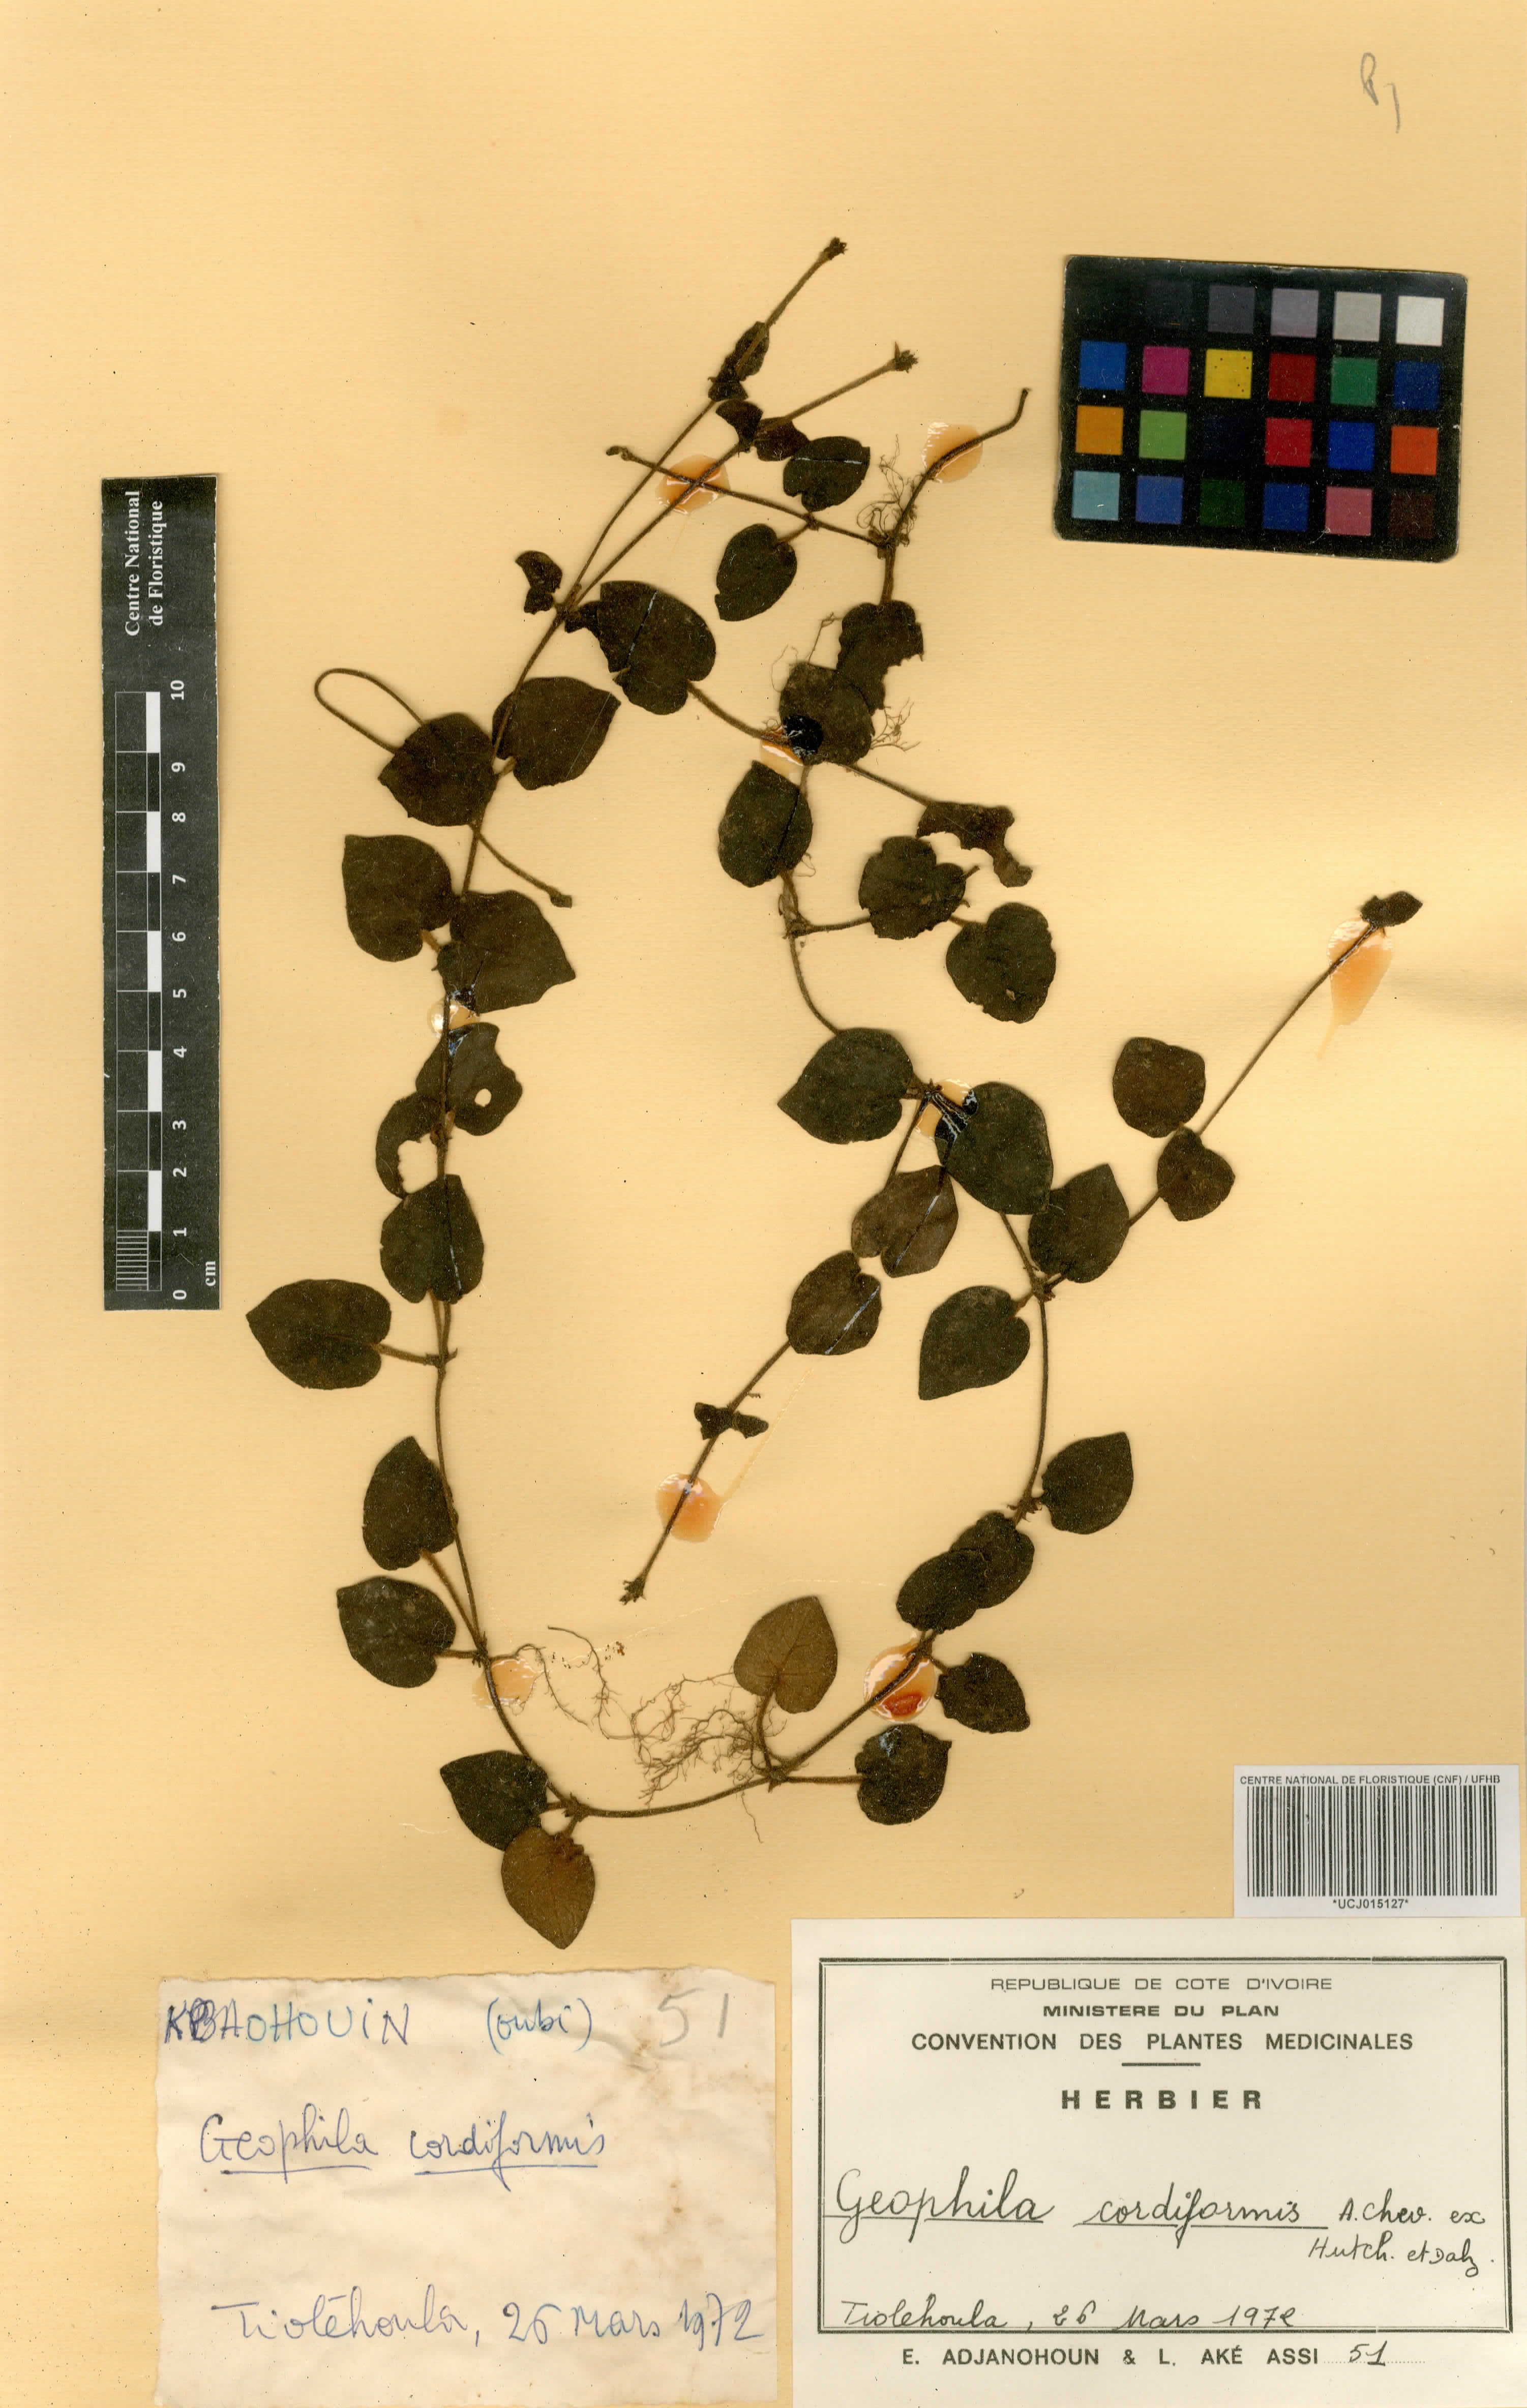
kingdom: Plantae
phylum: Tracheophyta
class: Magnoliopsida
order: Gentianales
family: Rubiaceae
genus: Geophila
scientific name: Geophila afzelii
